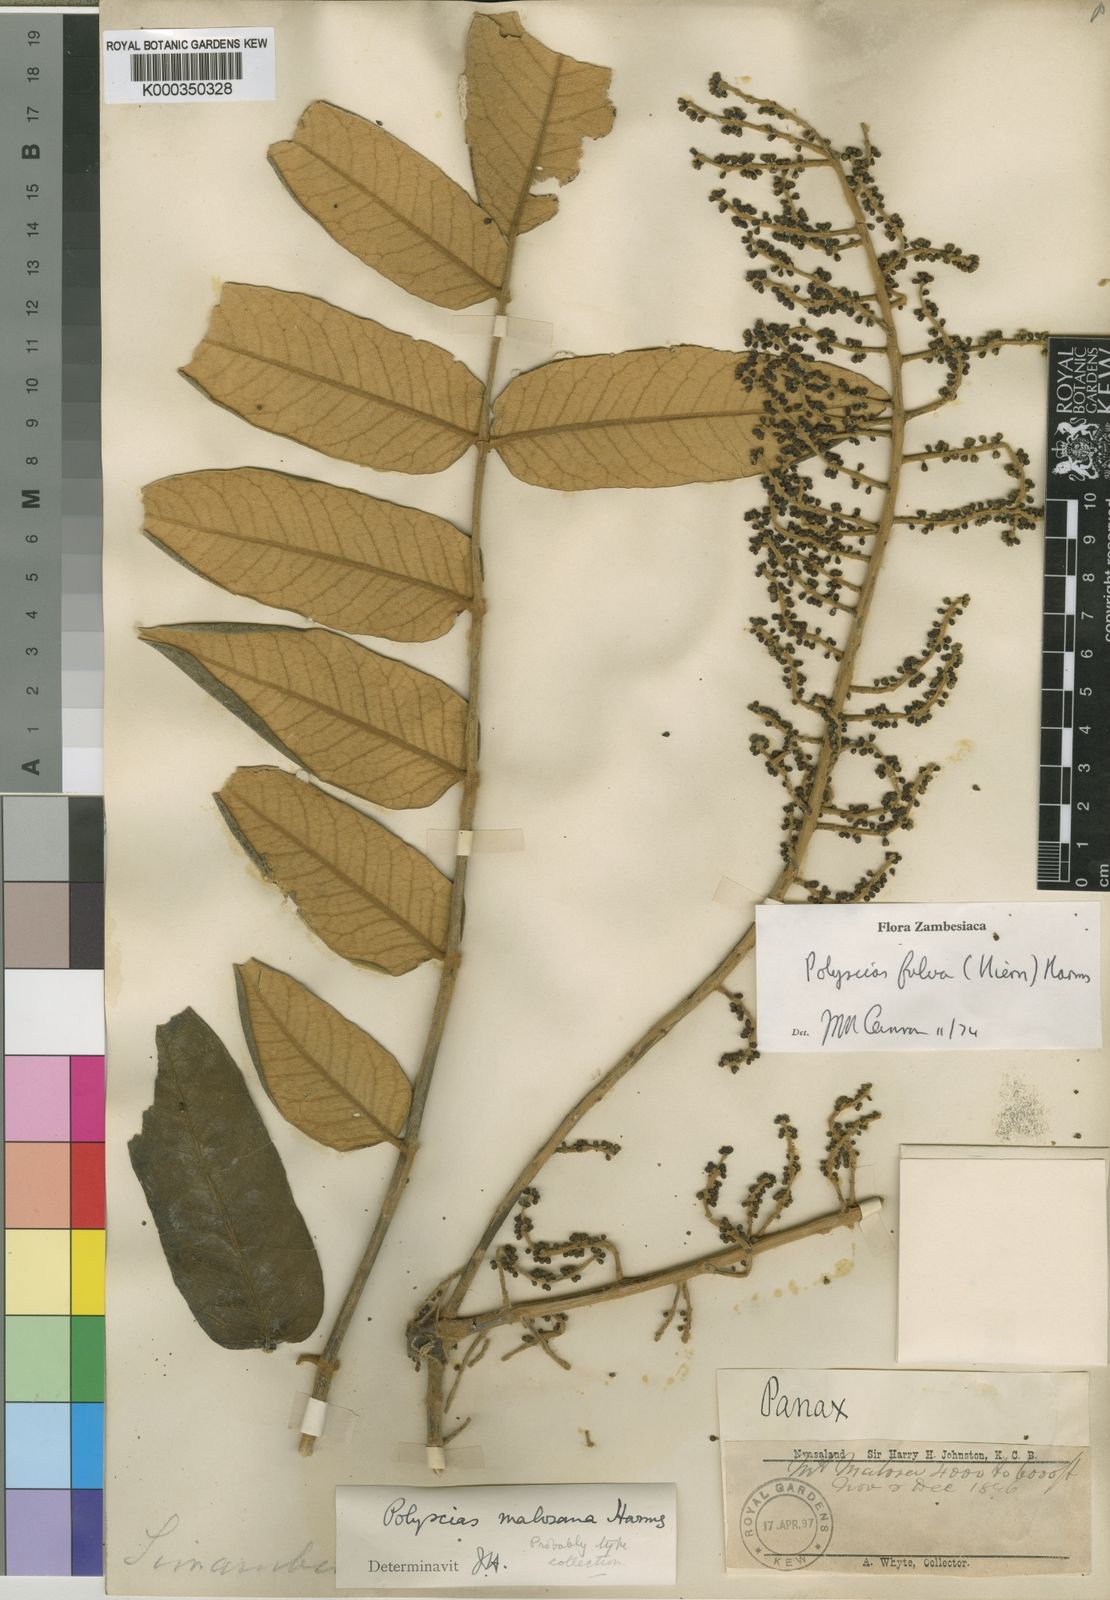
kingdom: Plantae
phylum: Tracheophyta
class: Magnoliopsida
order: Apiales
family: Araliaceae
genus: Polyscias
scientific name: Polyscias fulva
